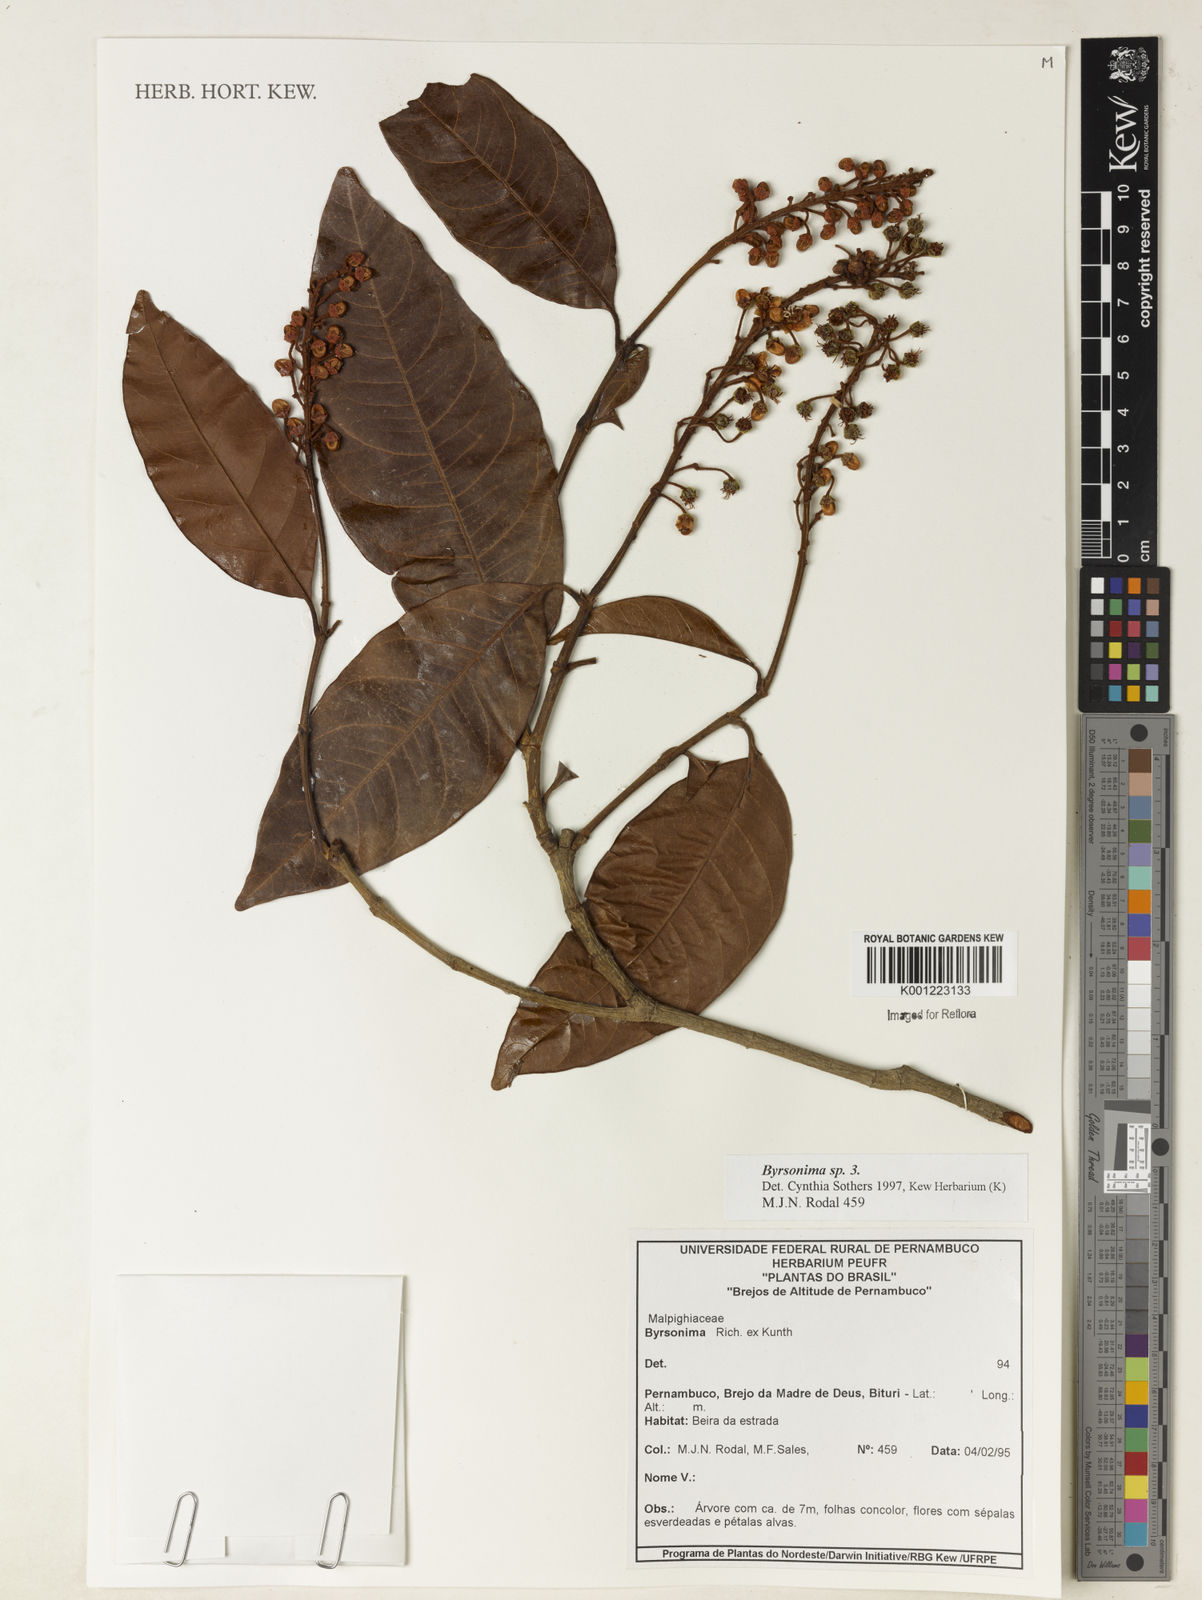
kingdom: Plantae
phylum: Tracheophyta
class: Magnoliopsida
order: Malpighiales
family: Malpighiaceae
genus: Byrsonima
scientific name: Byrsonima
